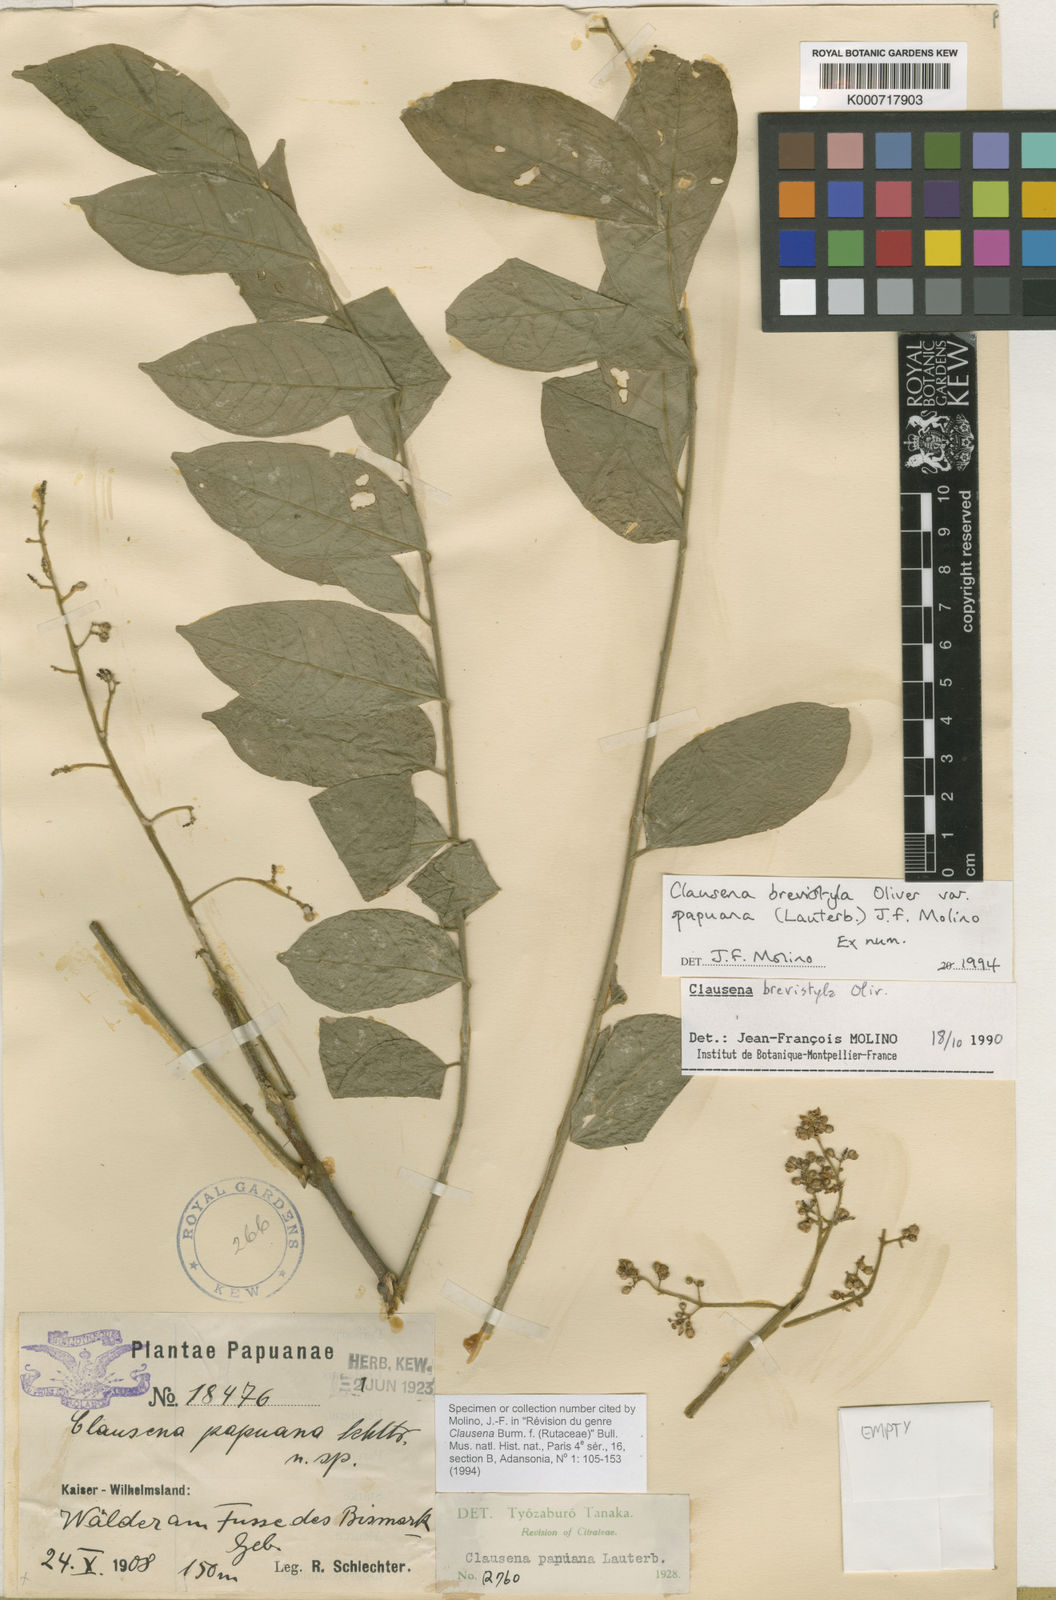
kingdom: Plantae
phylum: Tracheophyta
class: Magnoliopsida
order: Sapindales
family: Rutaceae
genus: Clausena
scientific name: Clausena brevistyla
